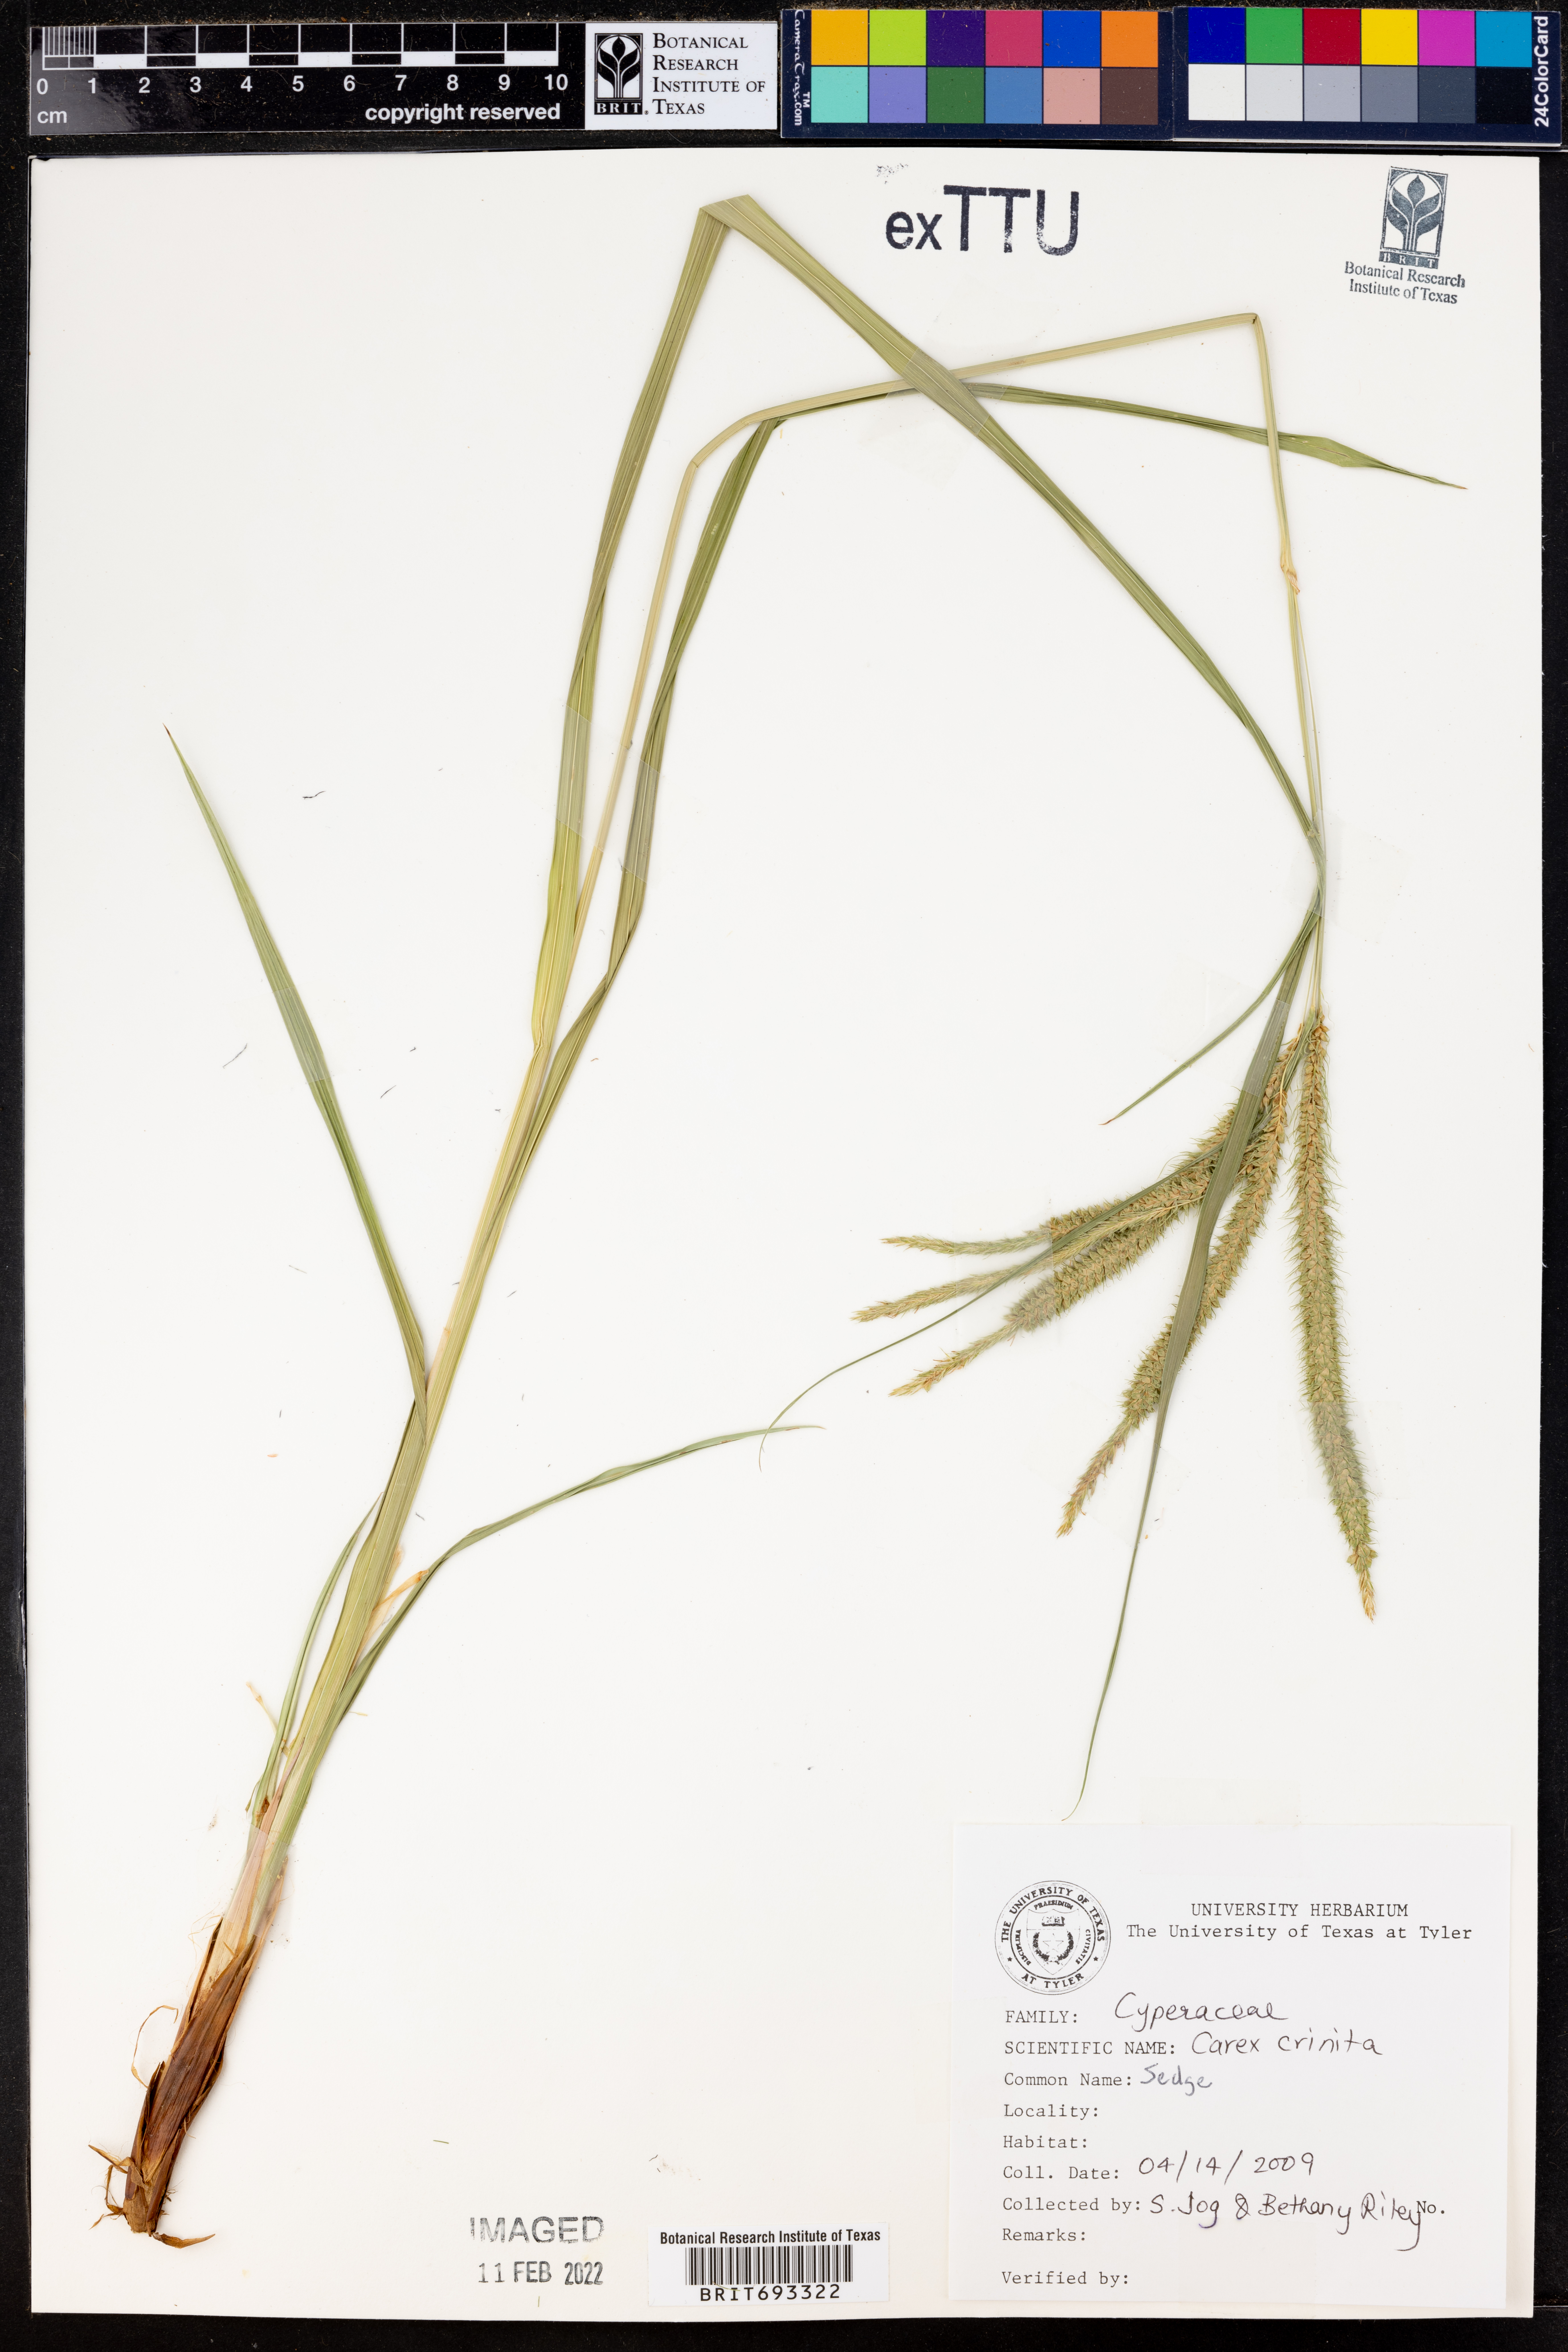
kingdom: Plantae
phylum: Tracheophyta
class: Liliopsida
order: Poales
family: Cyperaceae
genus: Carex
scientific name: Carex crinalis
